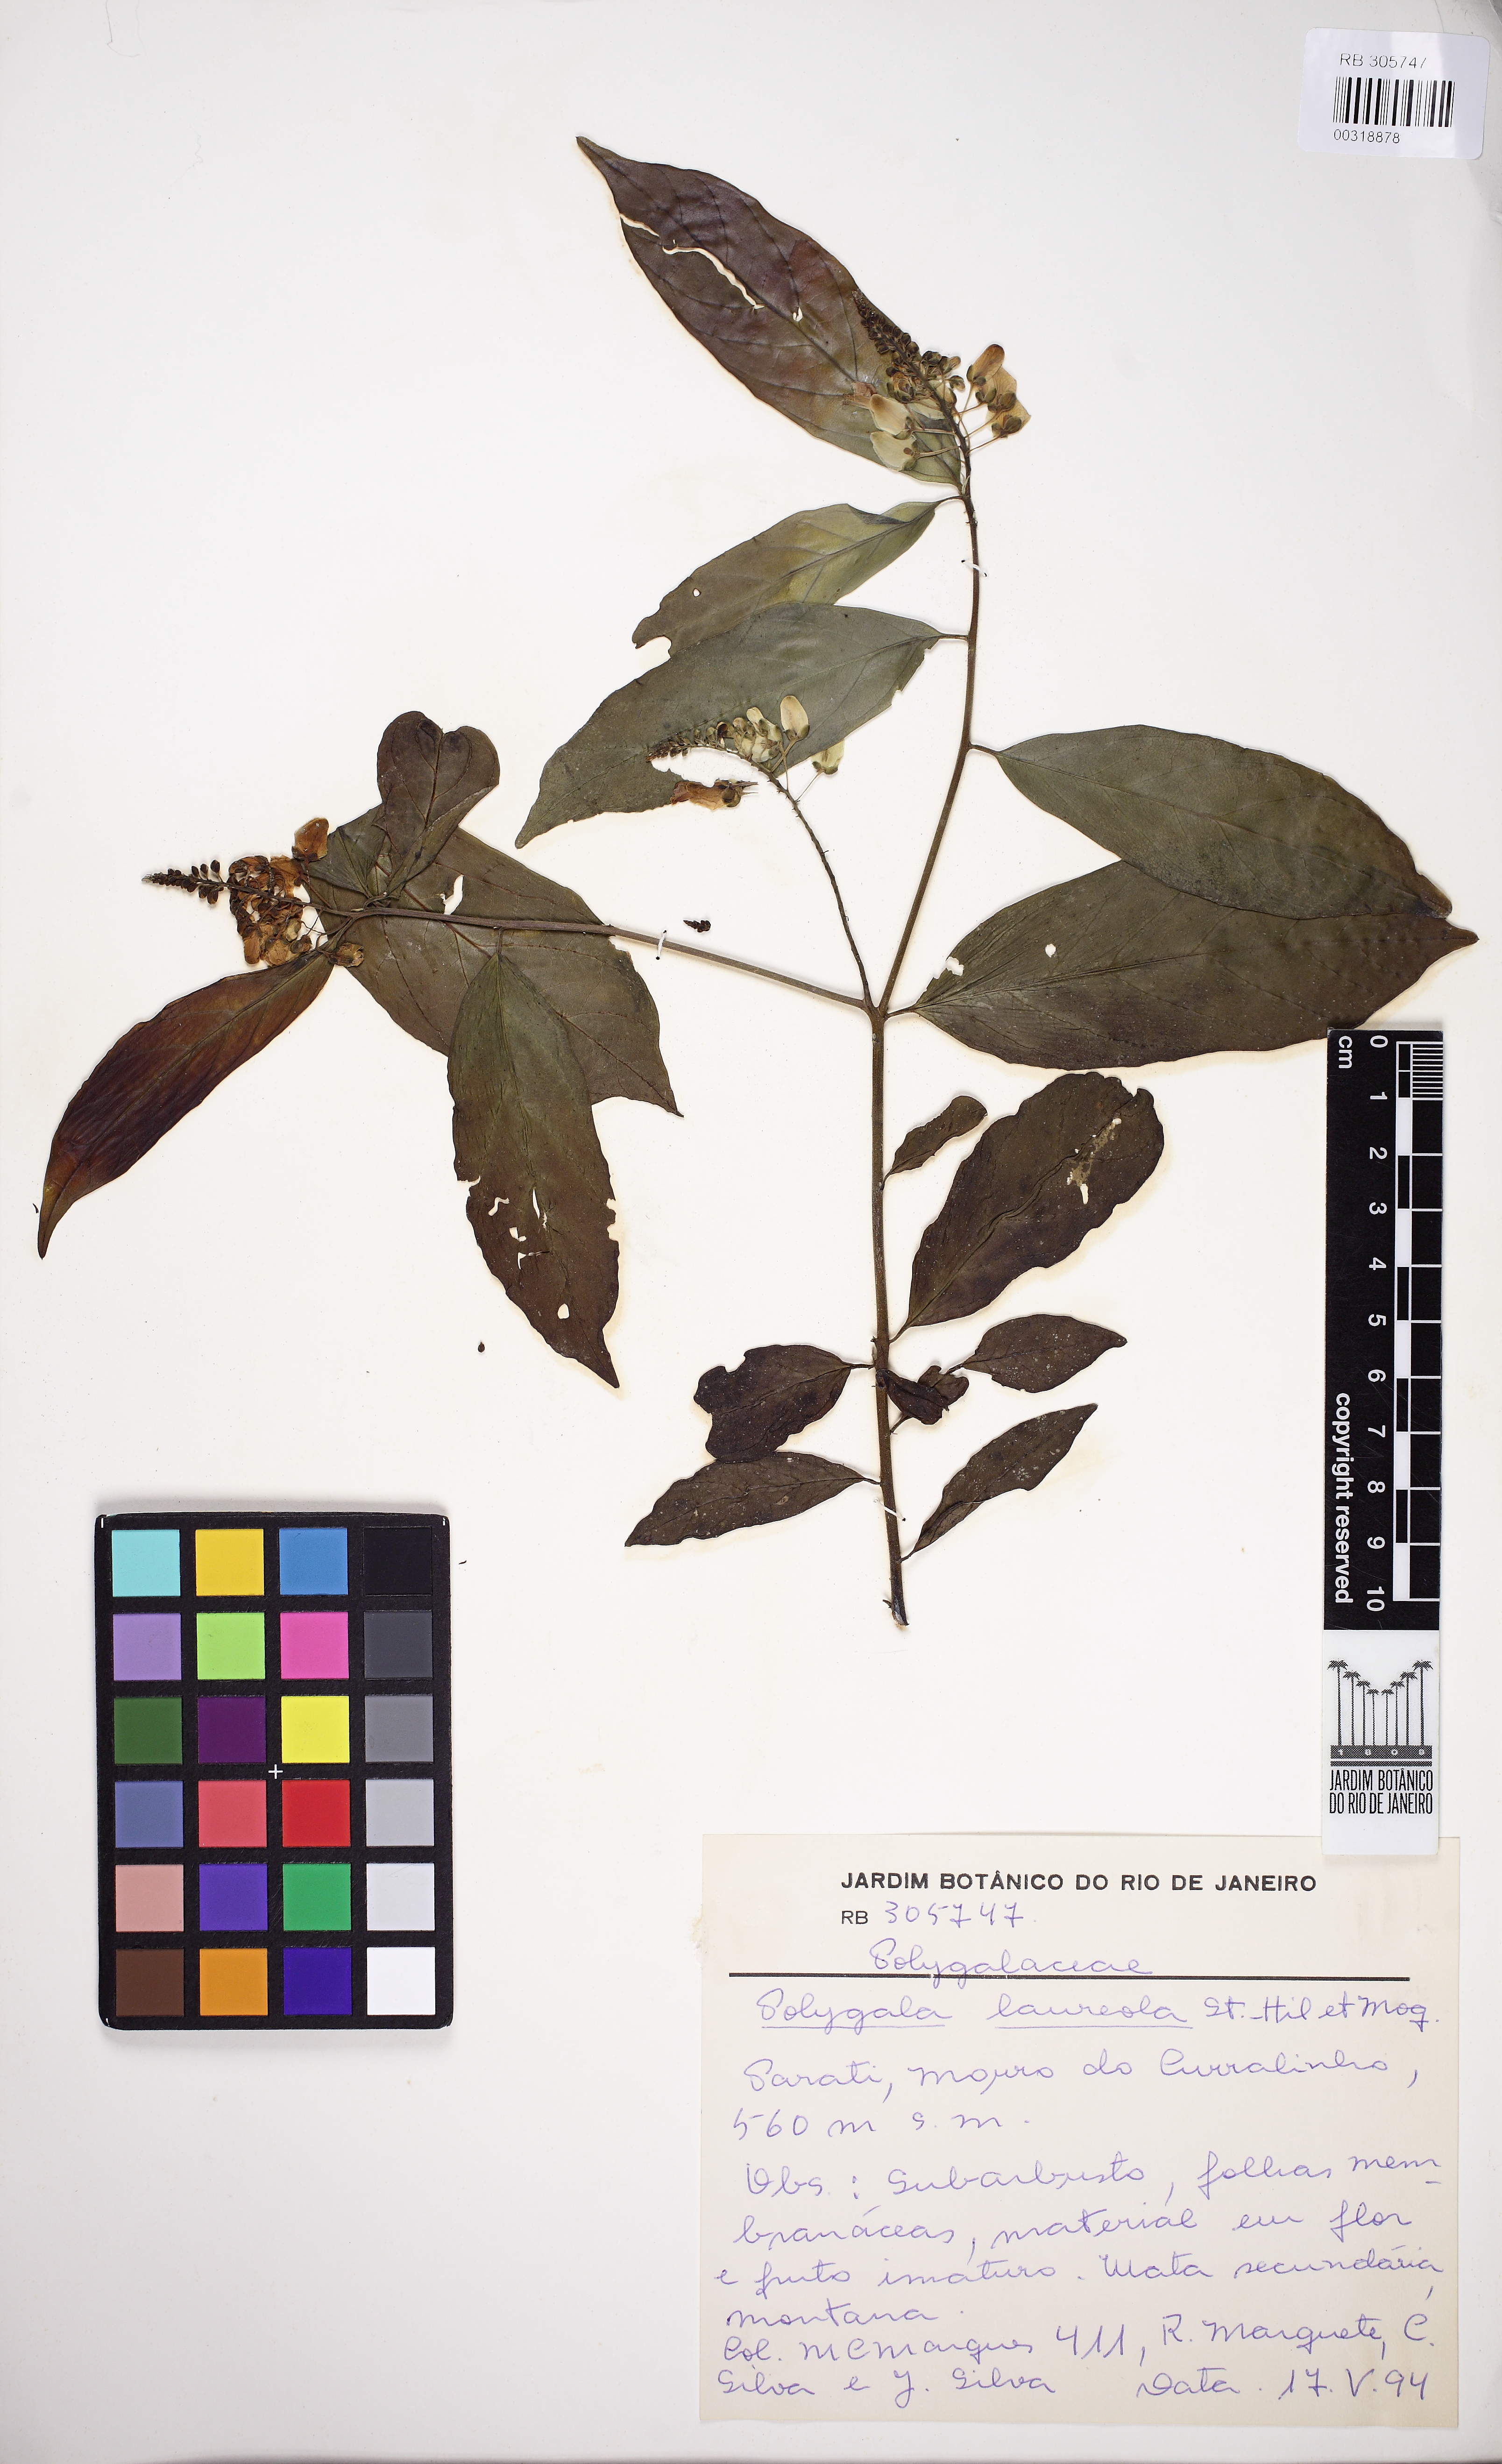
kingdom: Plantae
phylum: Tracheophyta
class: Magnoliopsida
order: Fabales
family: Polygalaceae
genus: Caamembeca
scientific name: Caamembeca salicifolia
